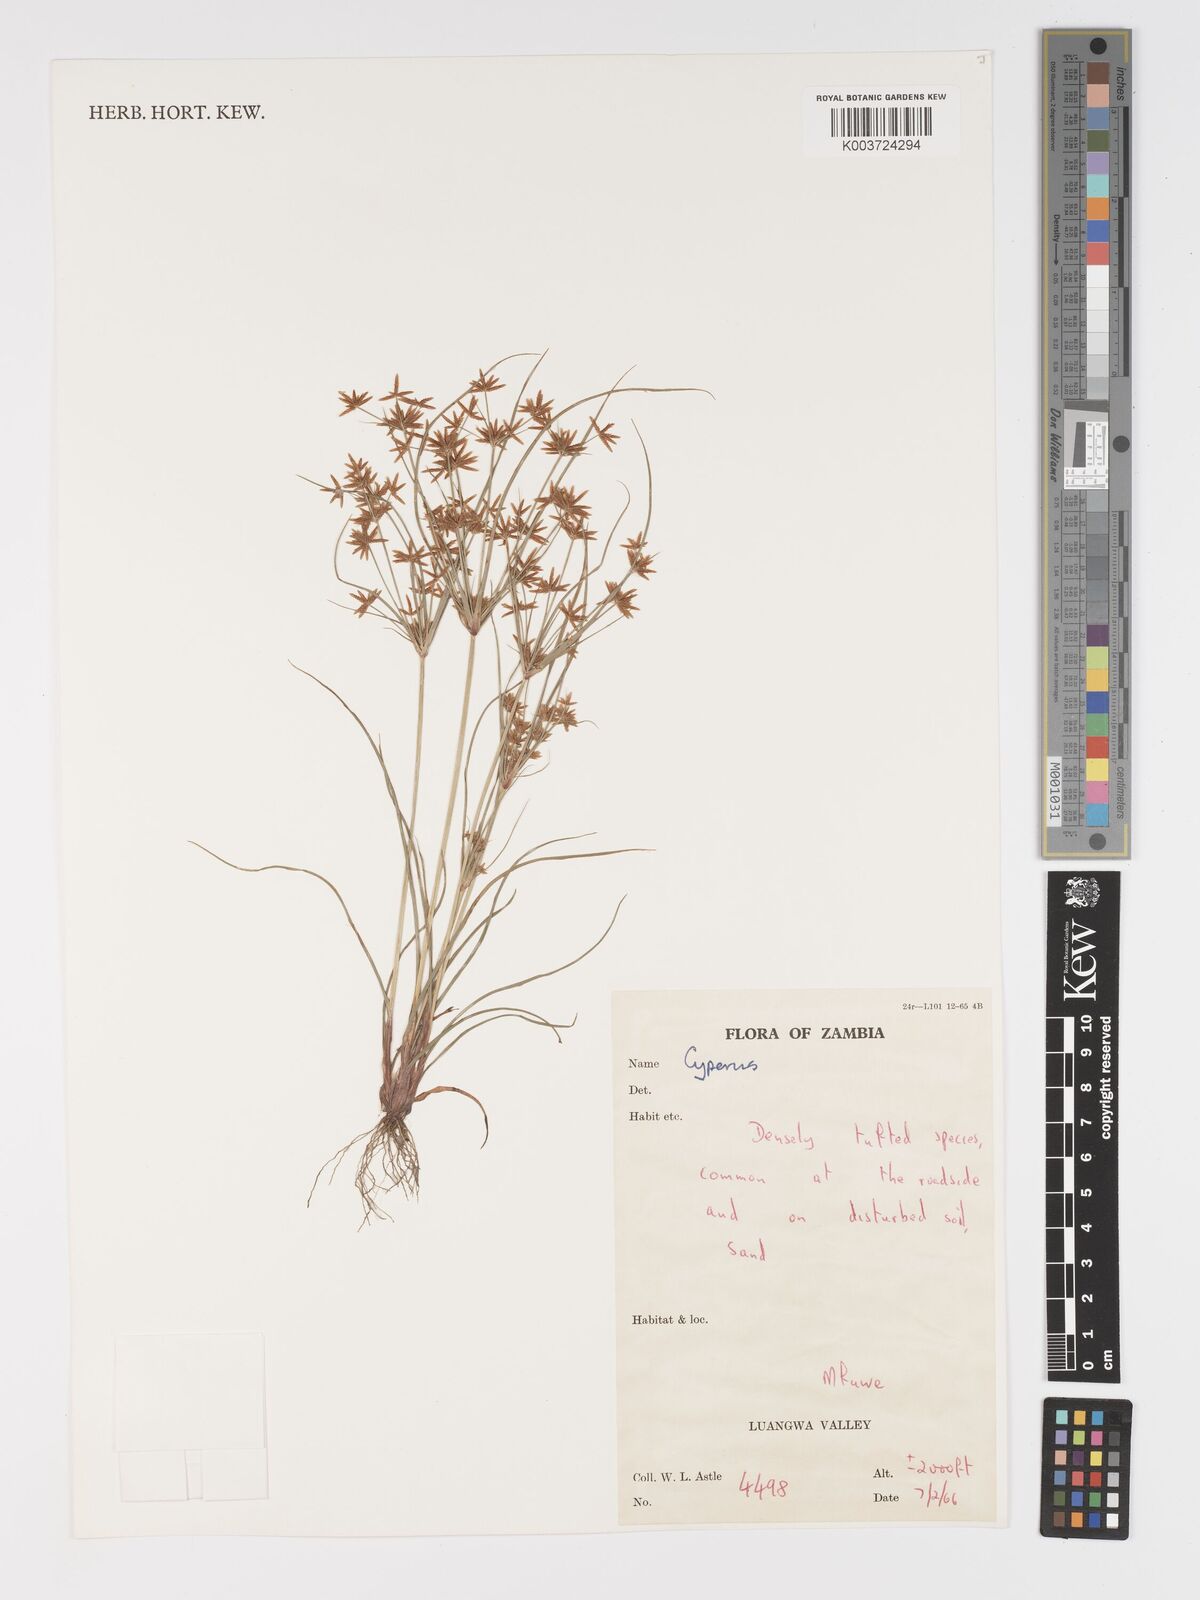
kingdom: Plantae
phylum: Tracheophyta
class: Liliopsida
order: Poales
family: Cyperaceae
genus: Cyperus
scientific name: Cyperus
